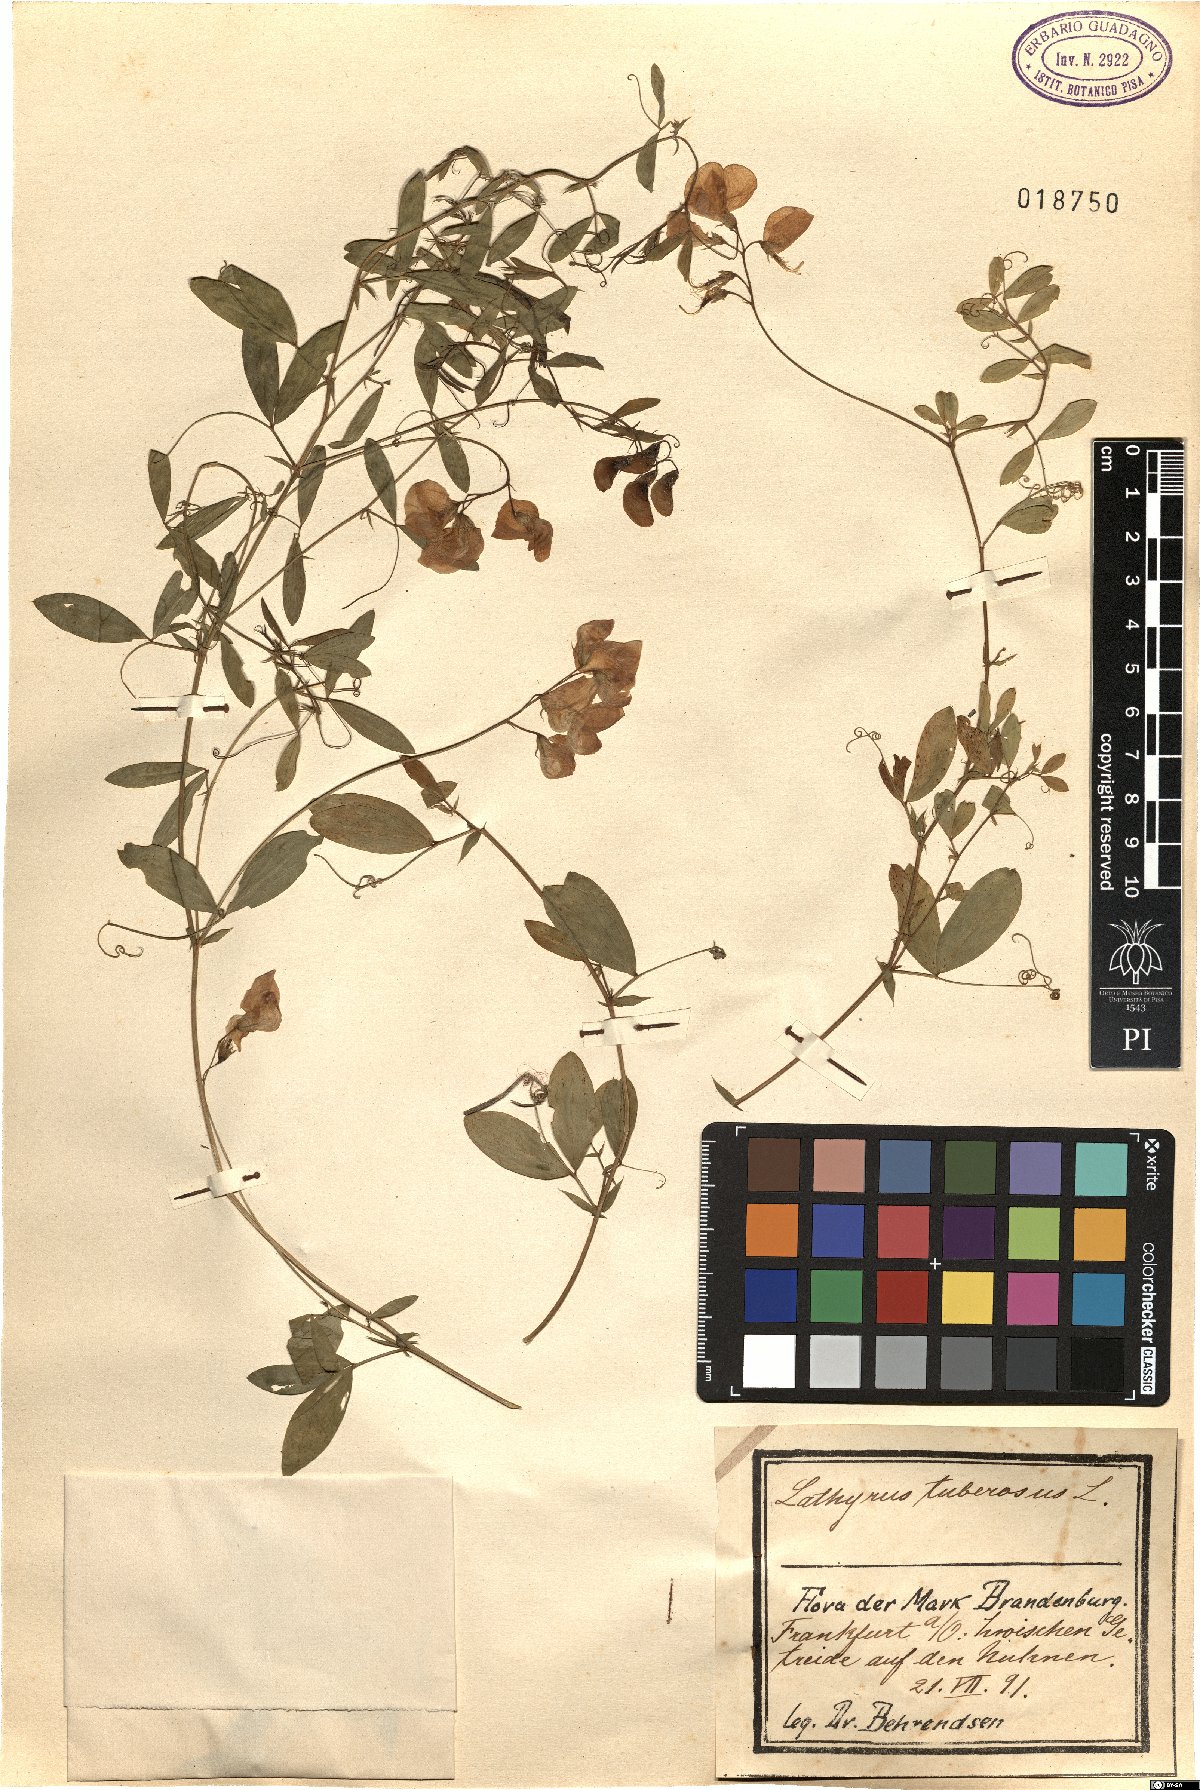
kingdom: Plantae
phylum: Tracheophyta
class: Magnoliopsida
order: Fabales
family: Fabaceae
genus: Lathyrus
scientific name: Lathyrus tuberosus
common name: Tuberous pea
